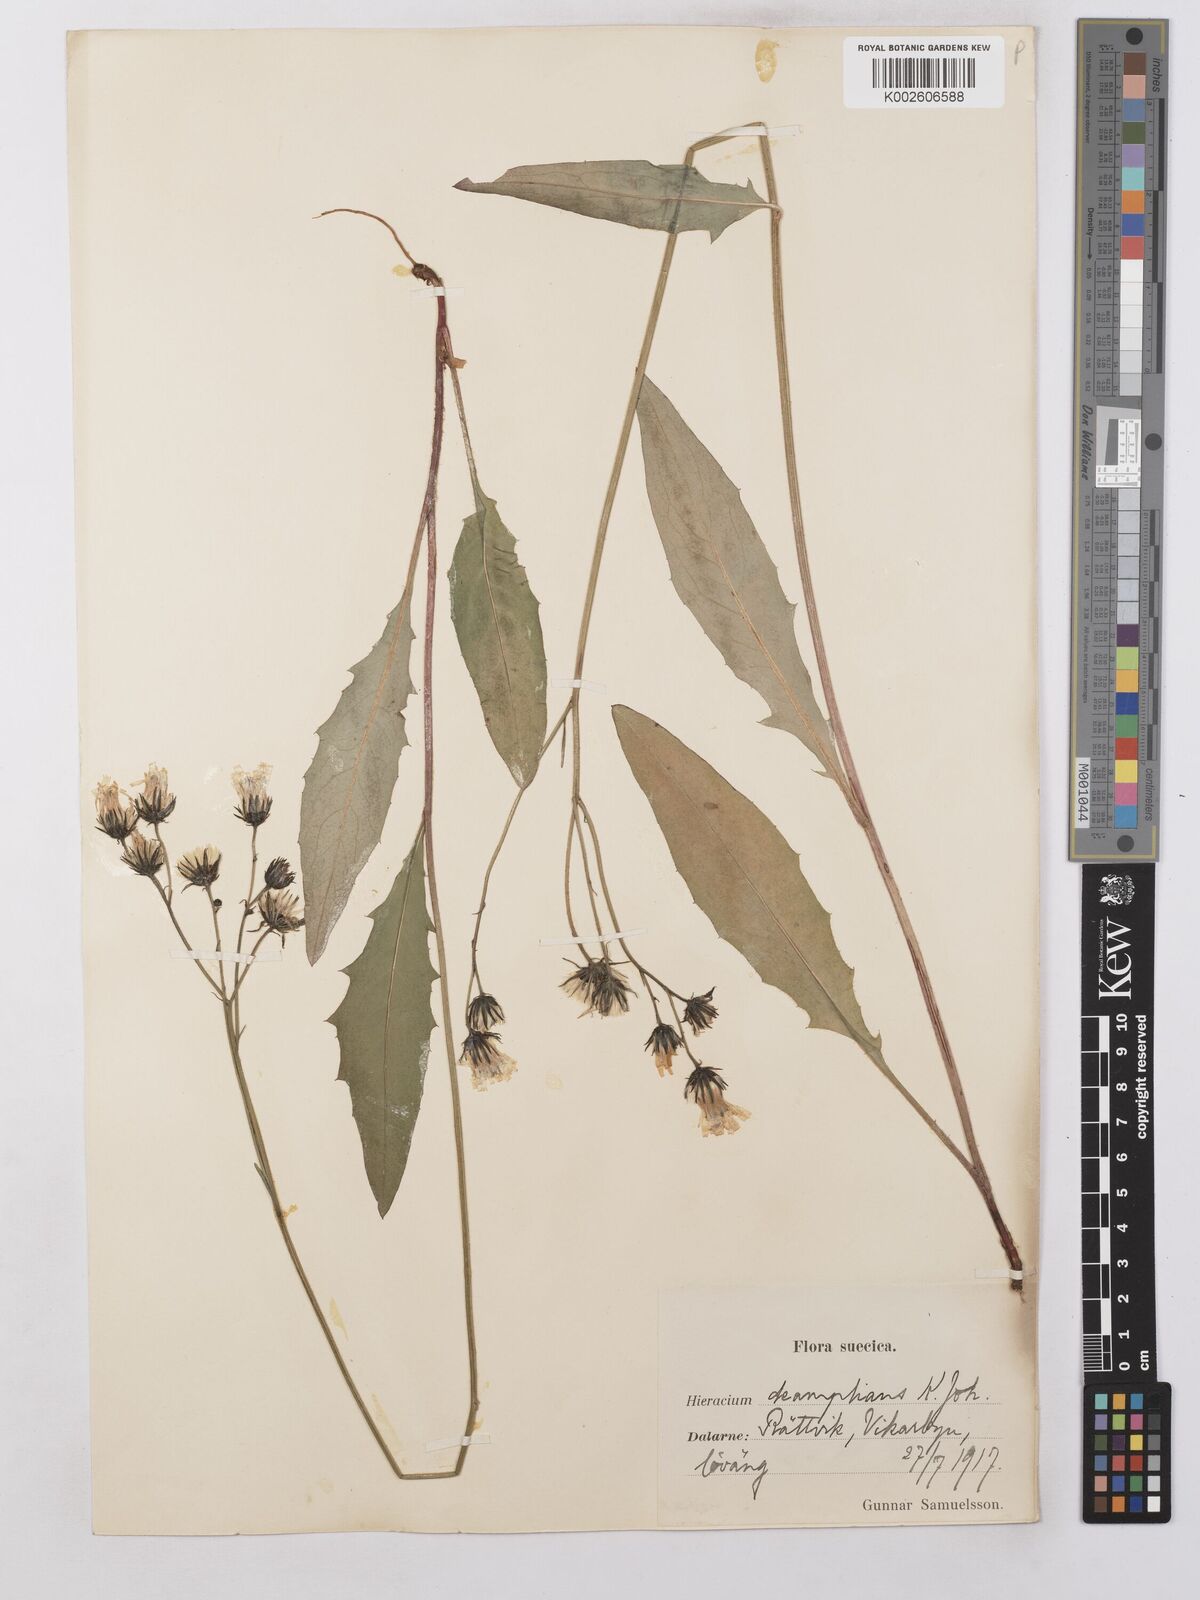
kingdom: Plantae
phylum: Tracheophyta
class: Magnoliopsida
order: Asterales
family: Asteraceae
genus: Hieracium
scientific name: Hieracium lachenalii
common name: Common hawkweed
